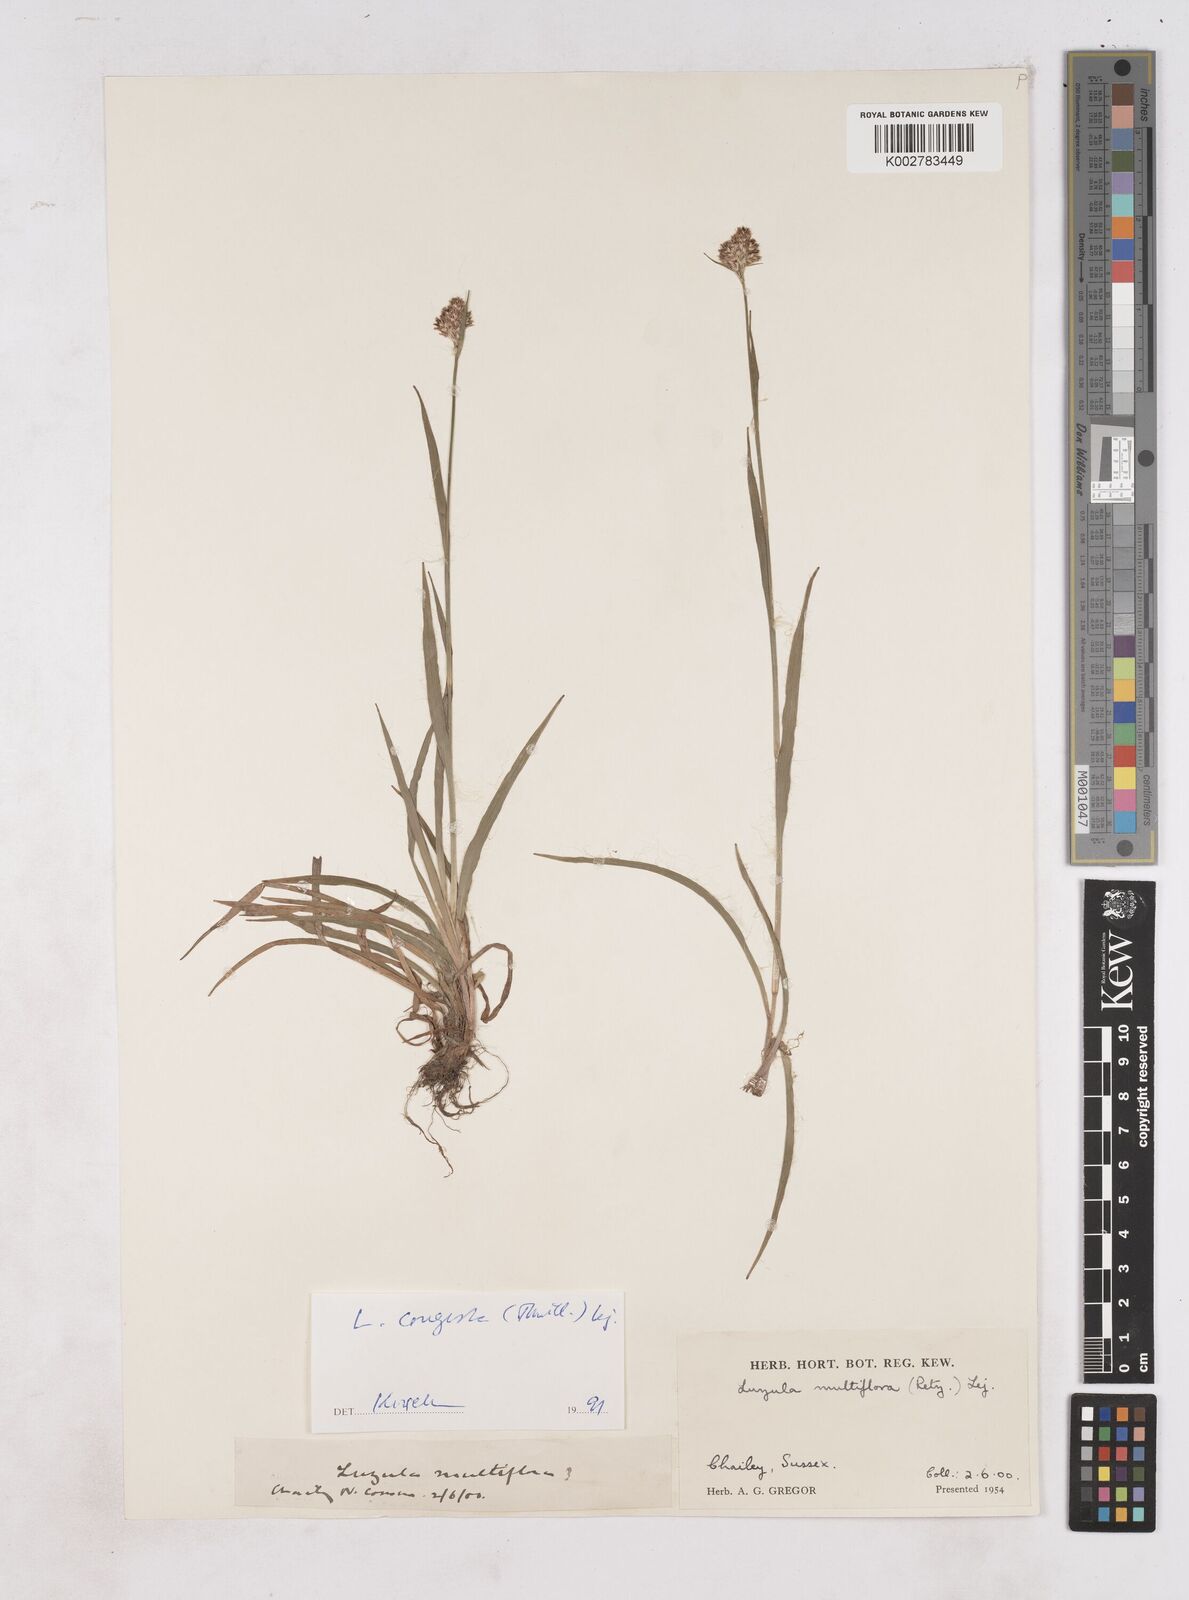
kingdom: Plantae
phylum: Tracheophyta
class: Liliopsida
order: Poales
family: Juncaceae
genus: Luzula
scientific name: Luzula campestris
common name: Field wood-rush
